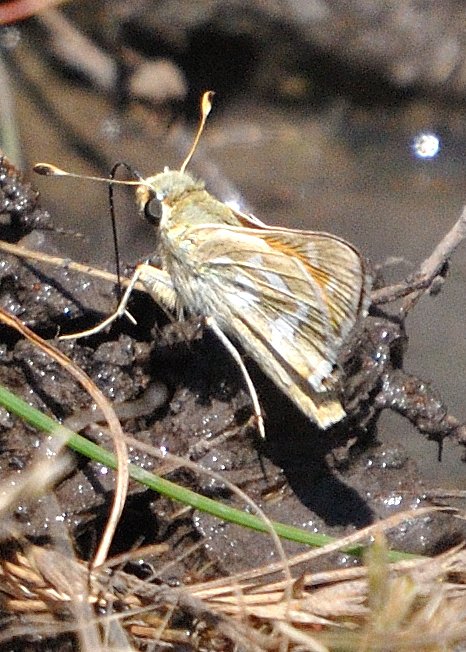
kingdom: Animalia
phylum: Arthropoda
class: Insecta
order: Lepidoptera
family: Hesperiidae
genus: Hesperia
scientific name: Hesperia lindseyi
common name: Lindsey's Skipper
